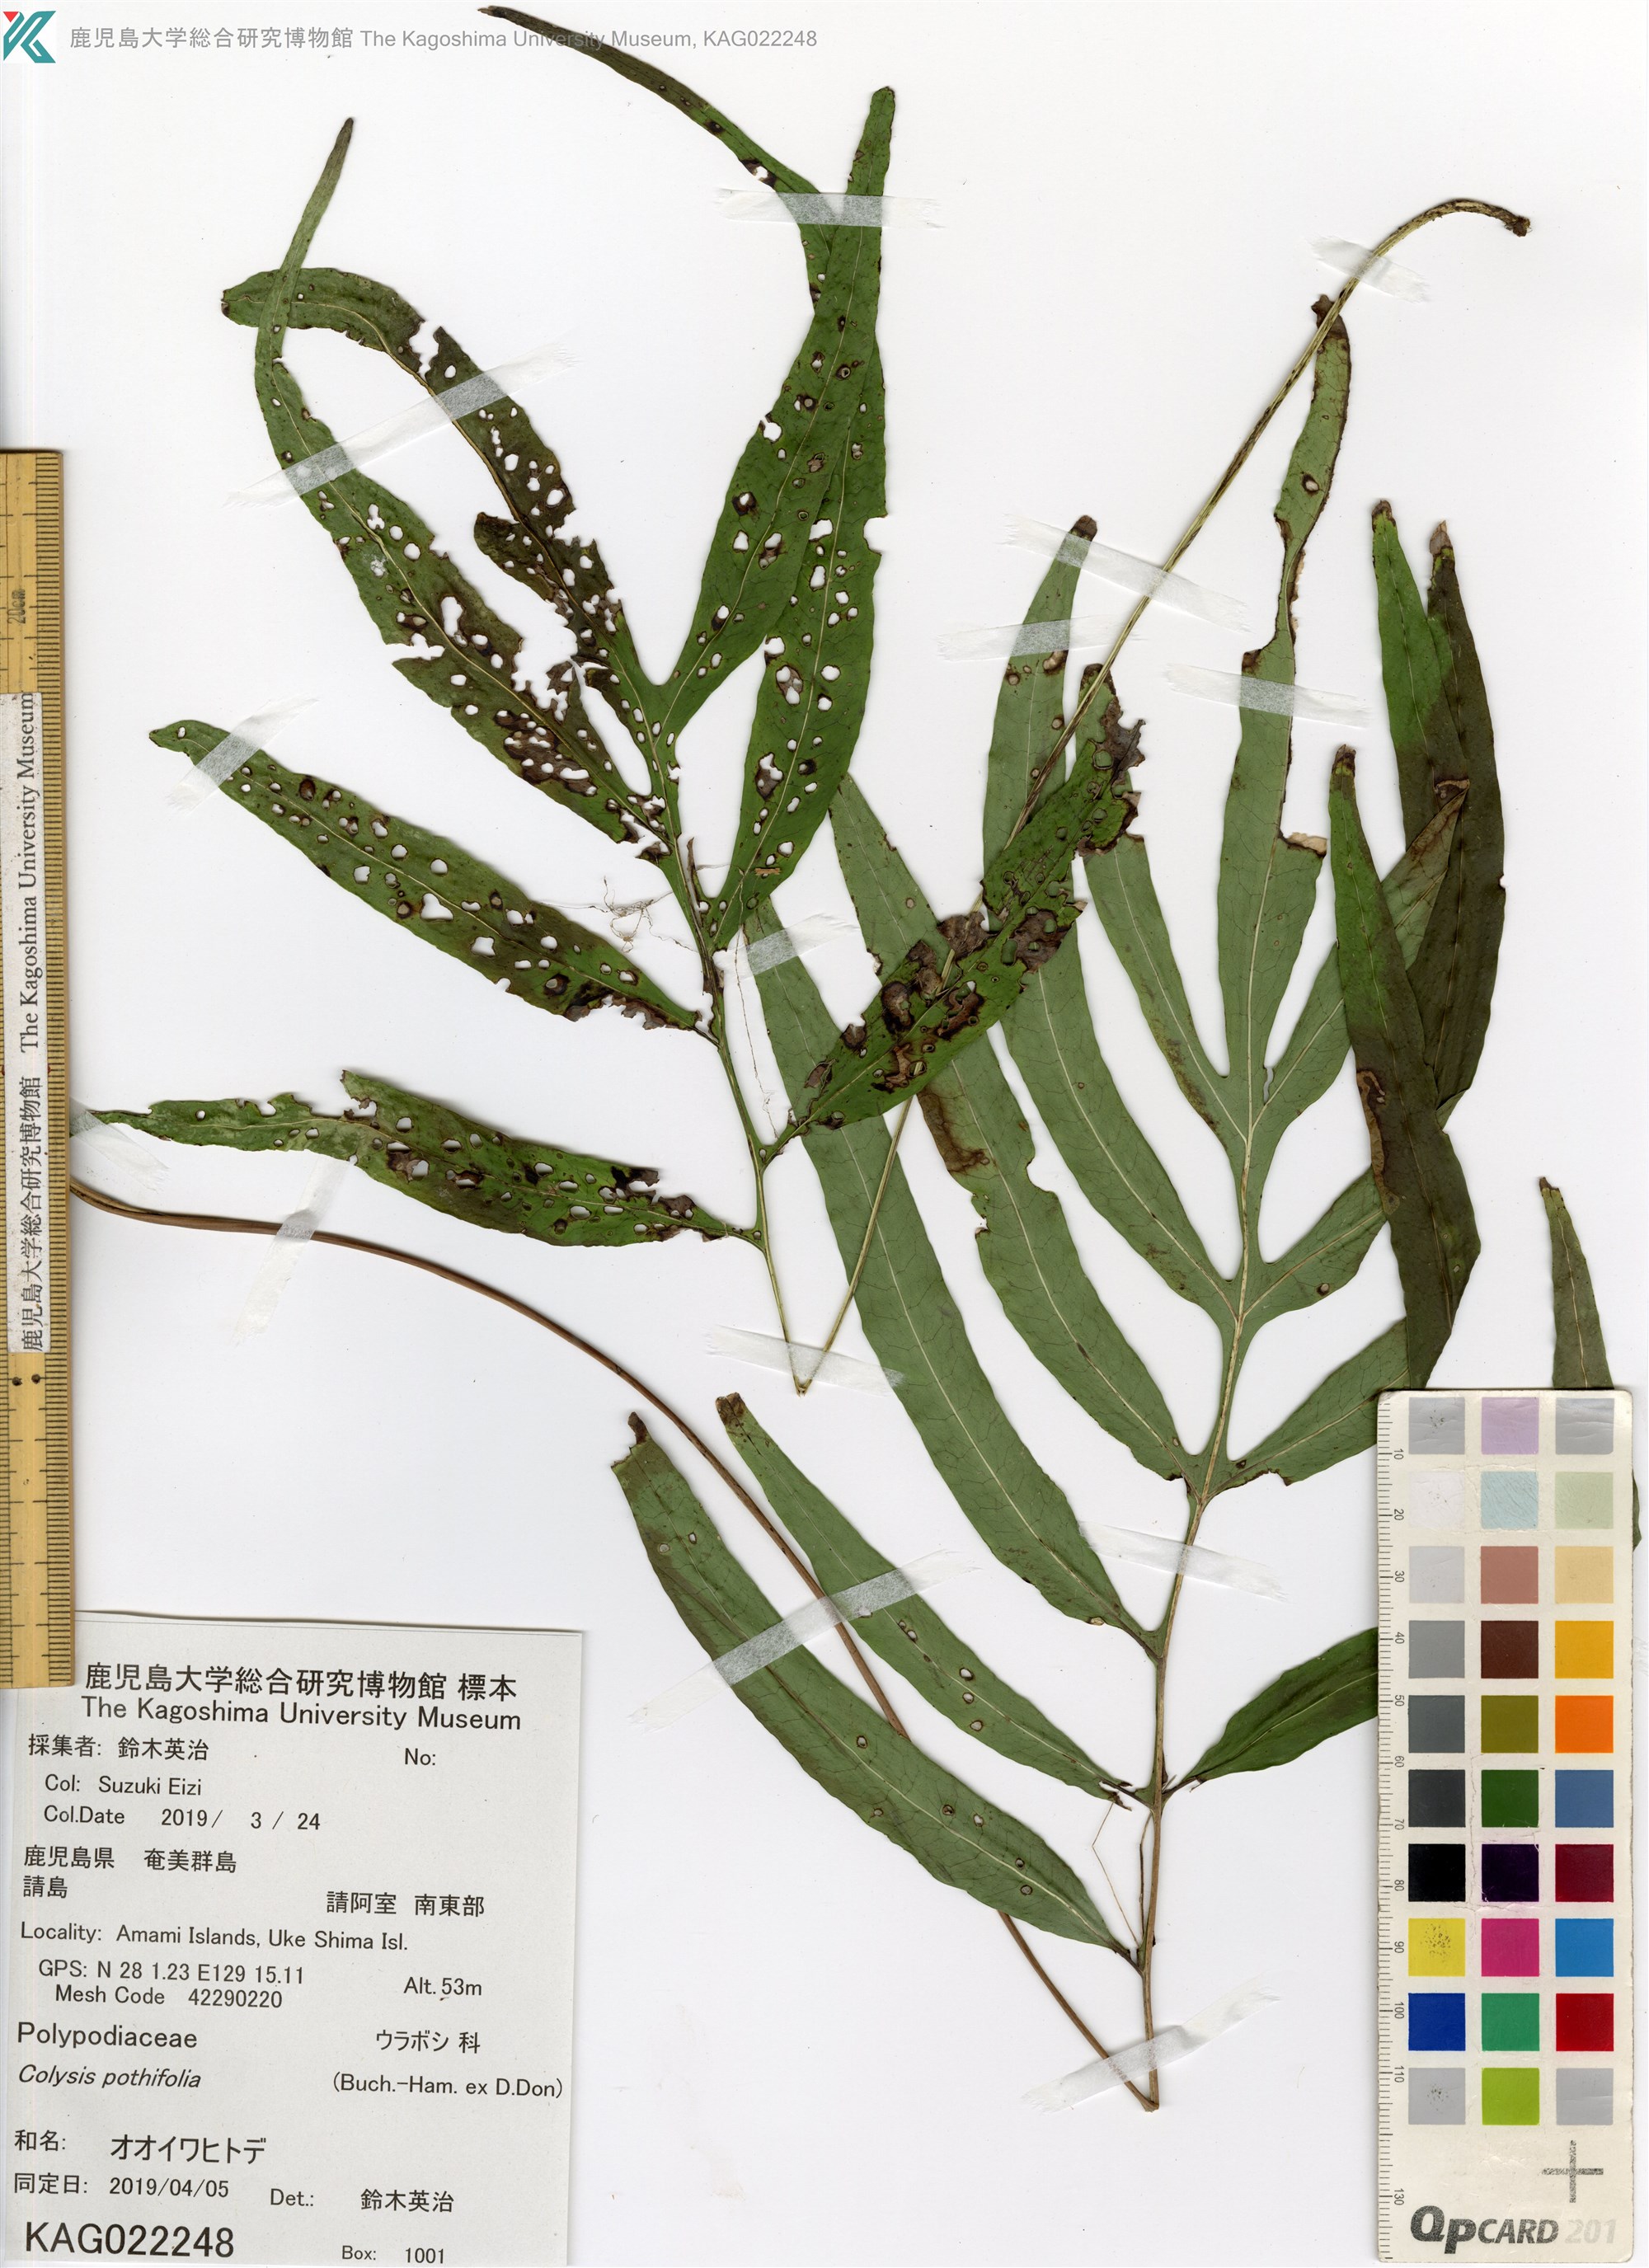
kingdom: Plantae
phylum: Tracheophyta
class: Polypodiopsida
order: Polypodiales
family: Polypodiaceae
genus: Leptochilus
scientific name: Leptochilus ellipticus
